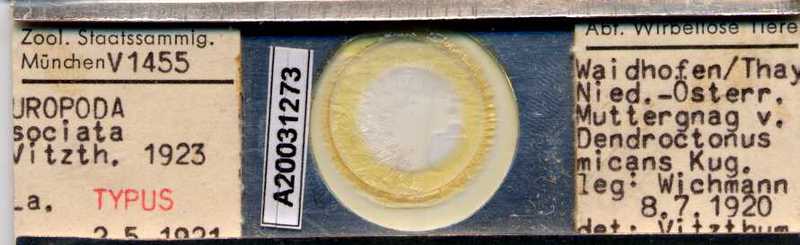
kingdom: Animalia
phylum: Arthropoda
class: Arachnida
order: Mesostigmata
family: Trematuridae
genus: Trichouropoda
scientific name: Trichouropoda sociata
